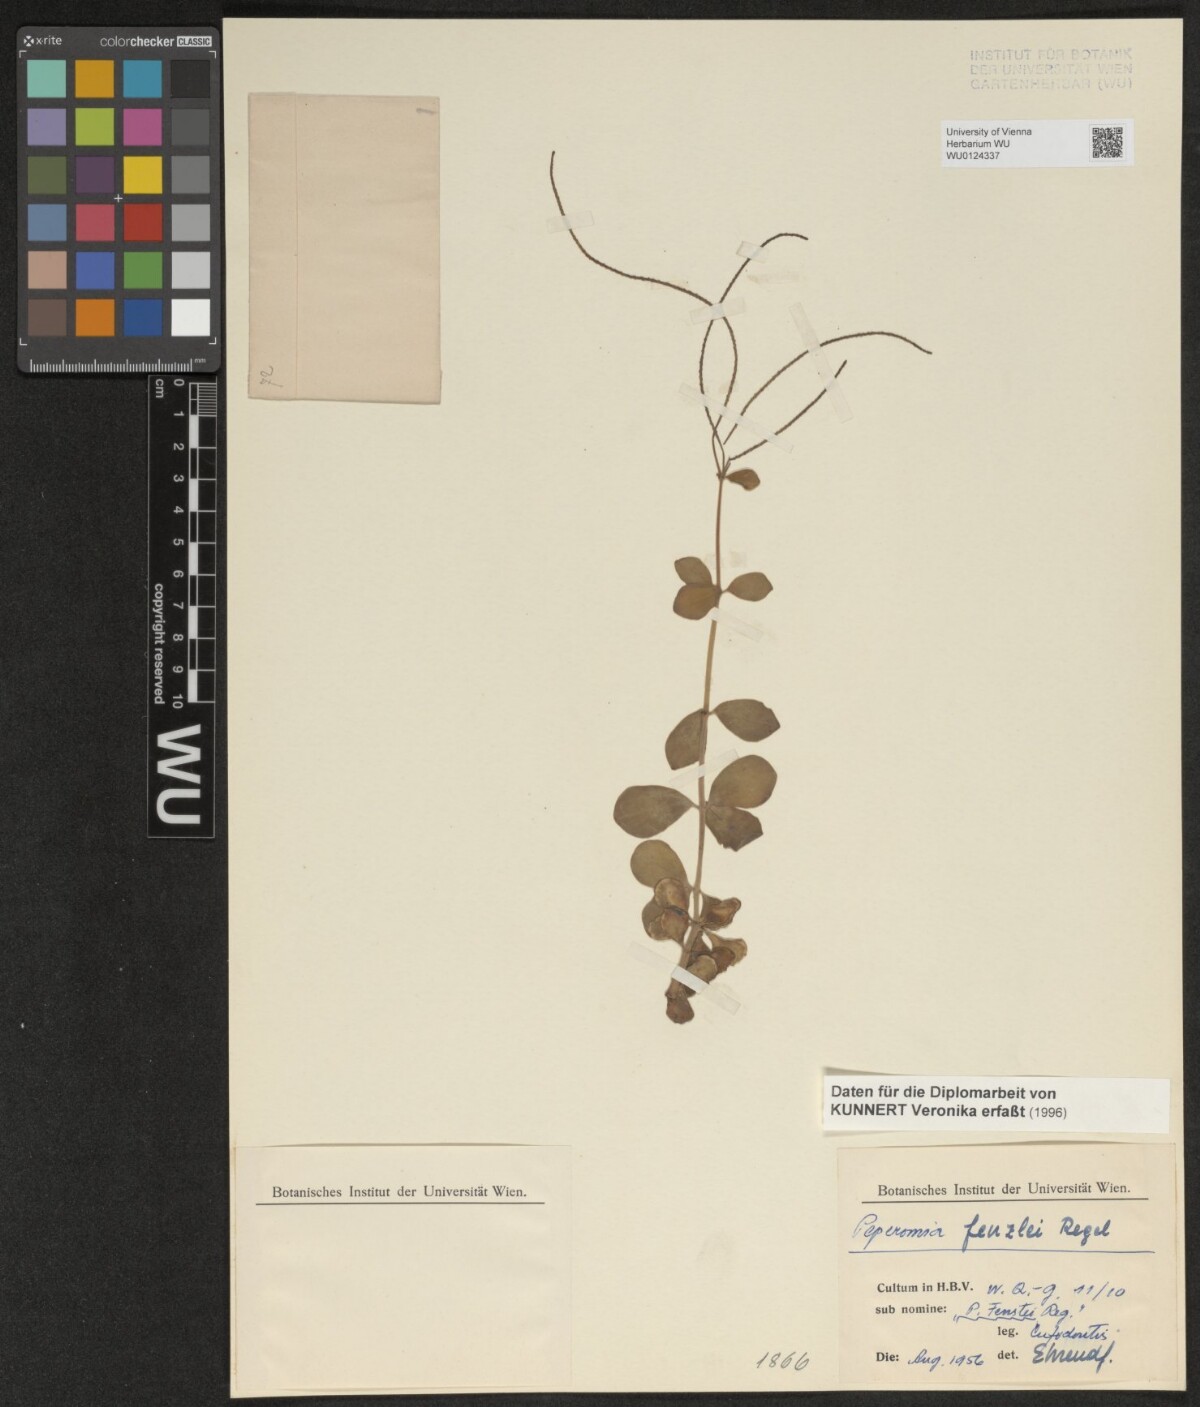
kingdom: Plantae
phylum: Tracheophyta
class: Magnoliopsida
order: Piperales
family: Piperaceae
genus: Peperomia
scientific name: Peperomia verticillata
